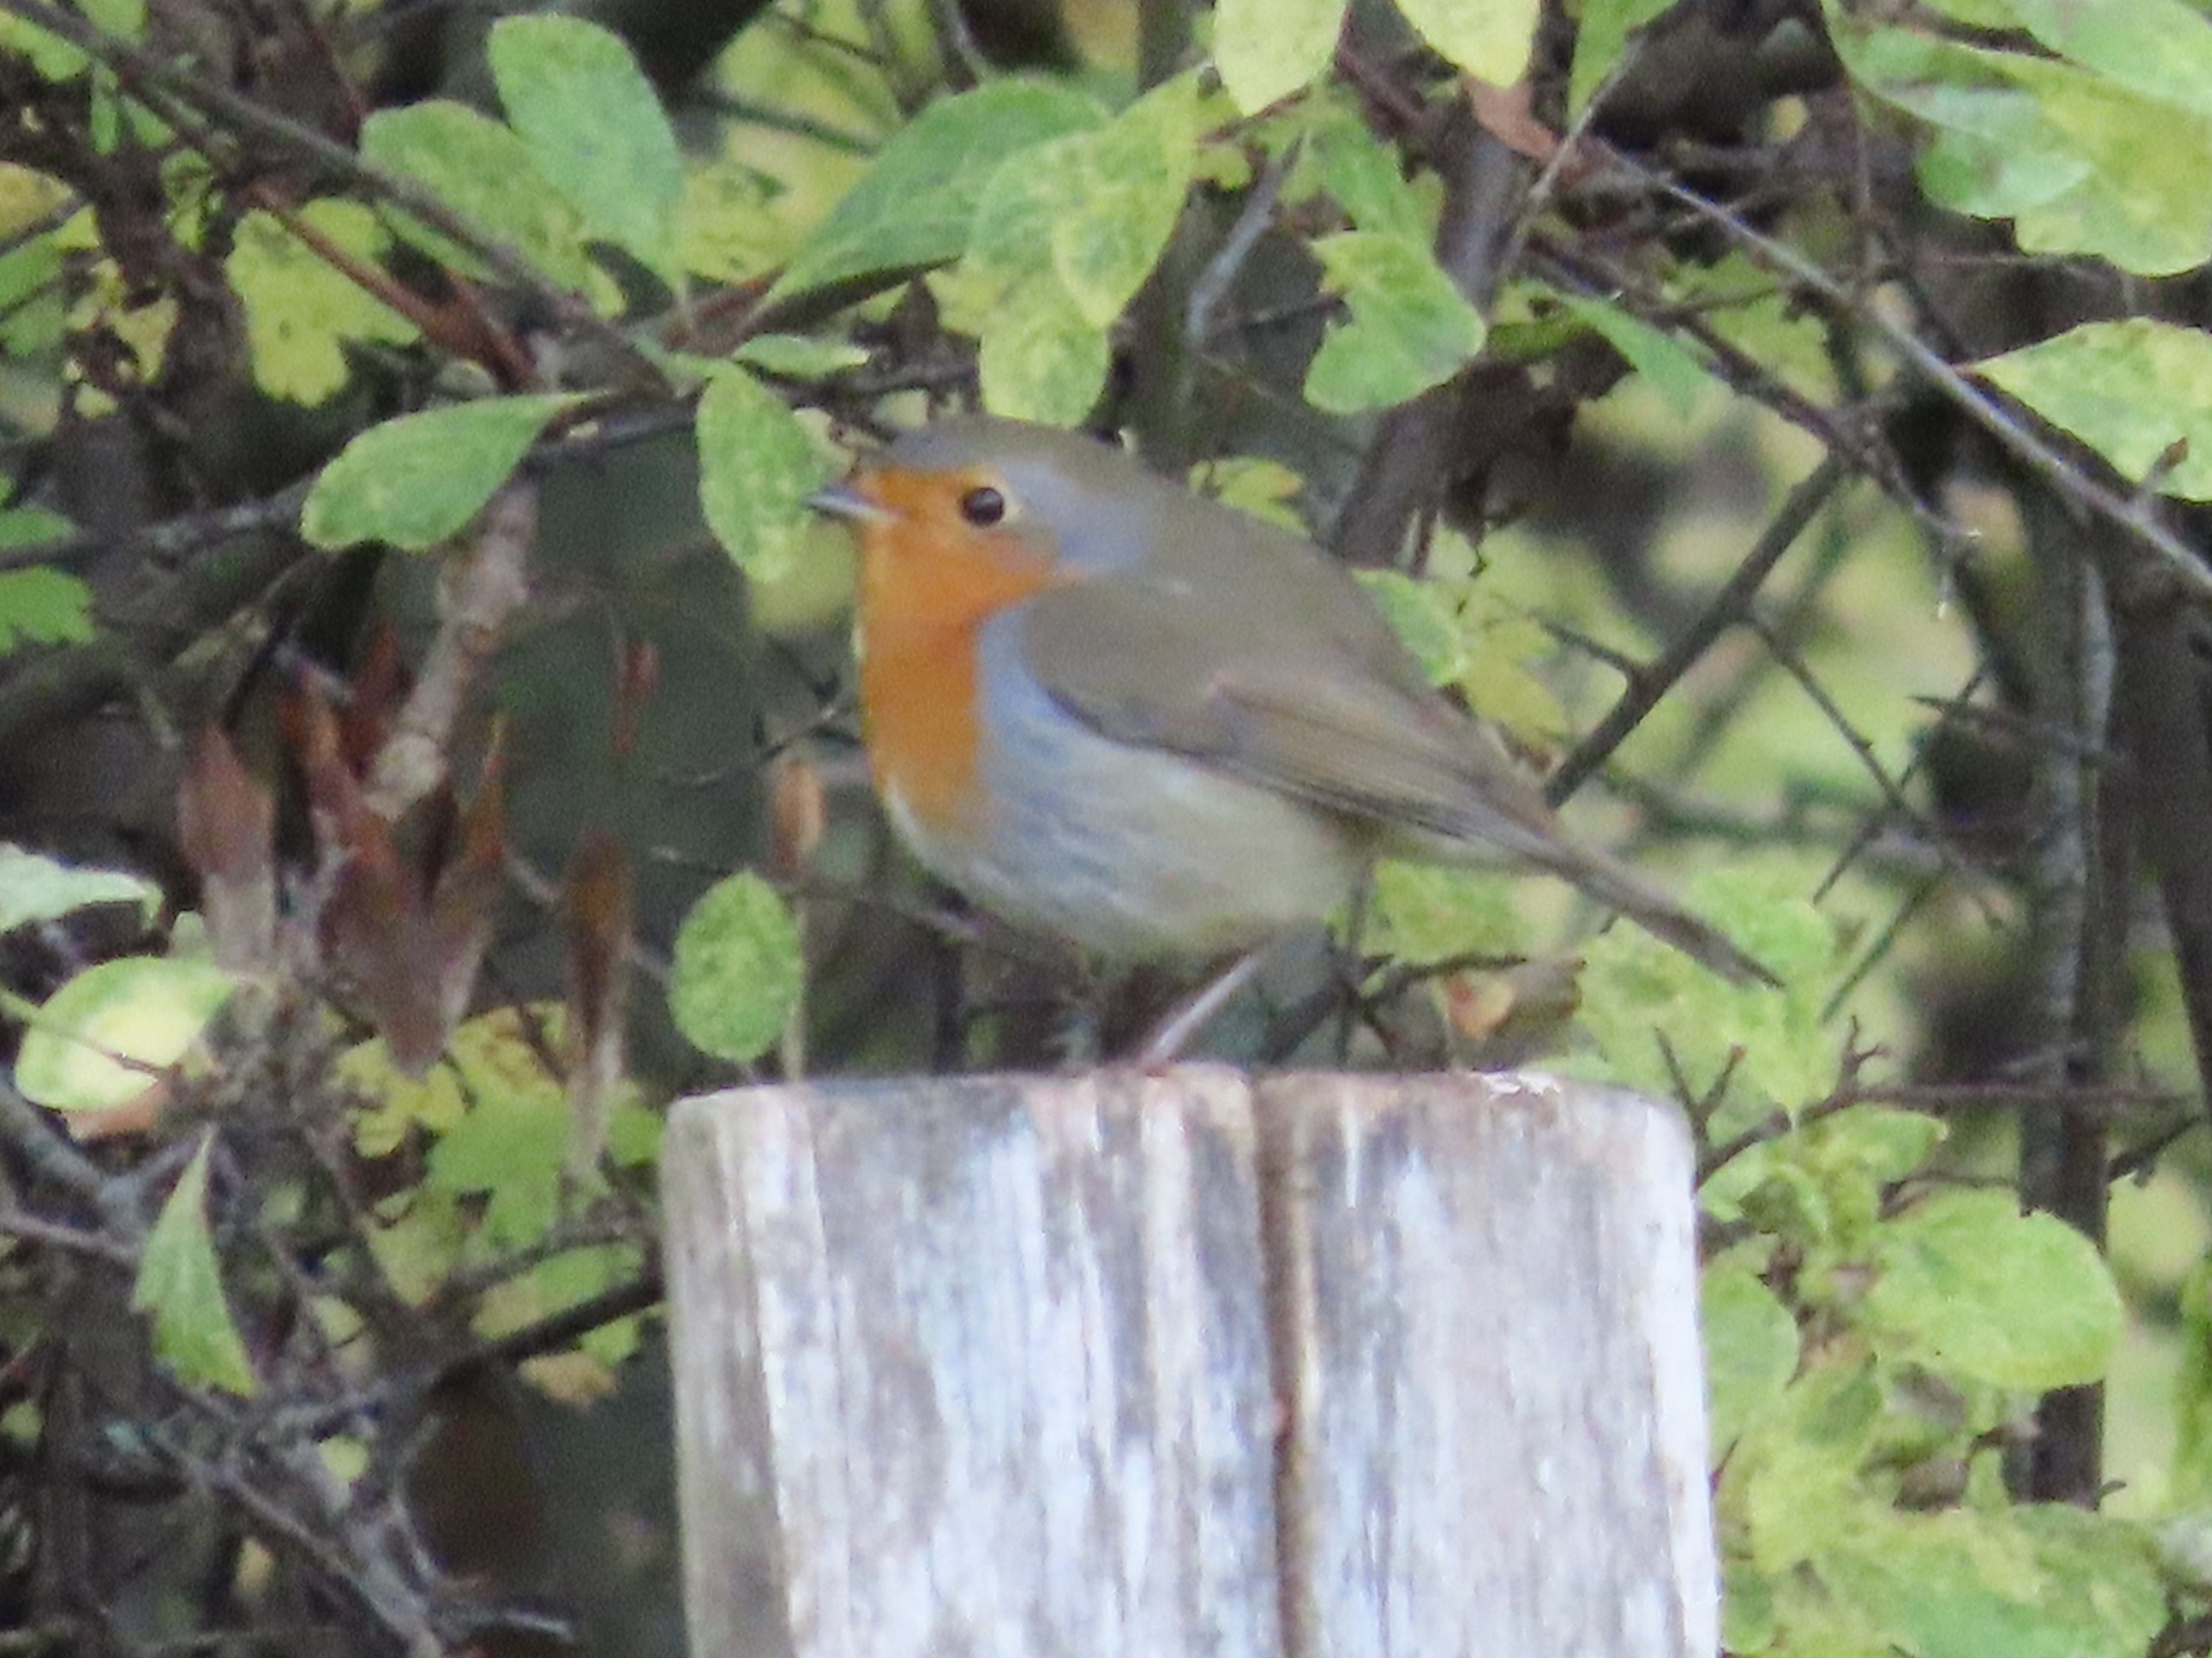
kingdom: Animalia
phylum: Chordata
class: Aves
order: Passeriformes
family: Muscicapidae
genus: Erithacus
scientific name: Erithacus rubecula
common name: Rødhals/rødkælk
